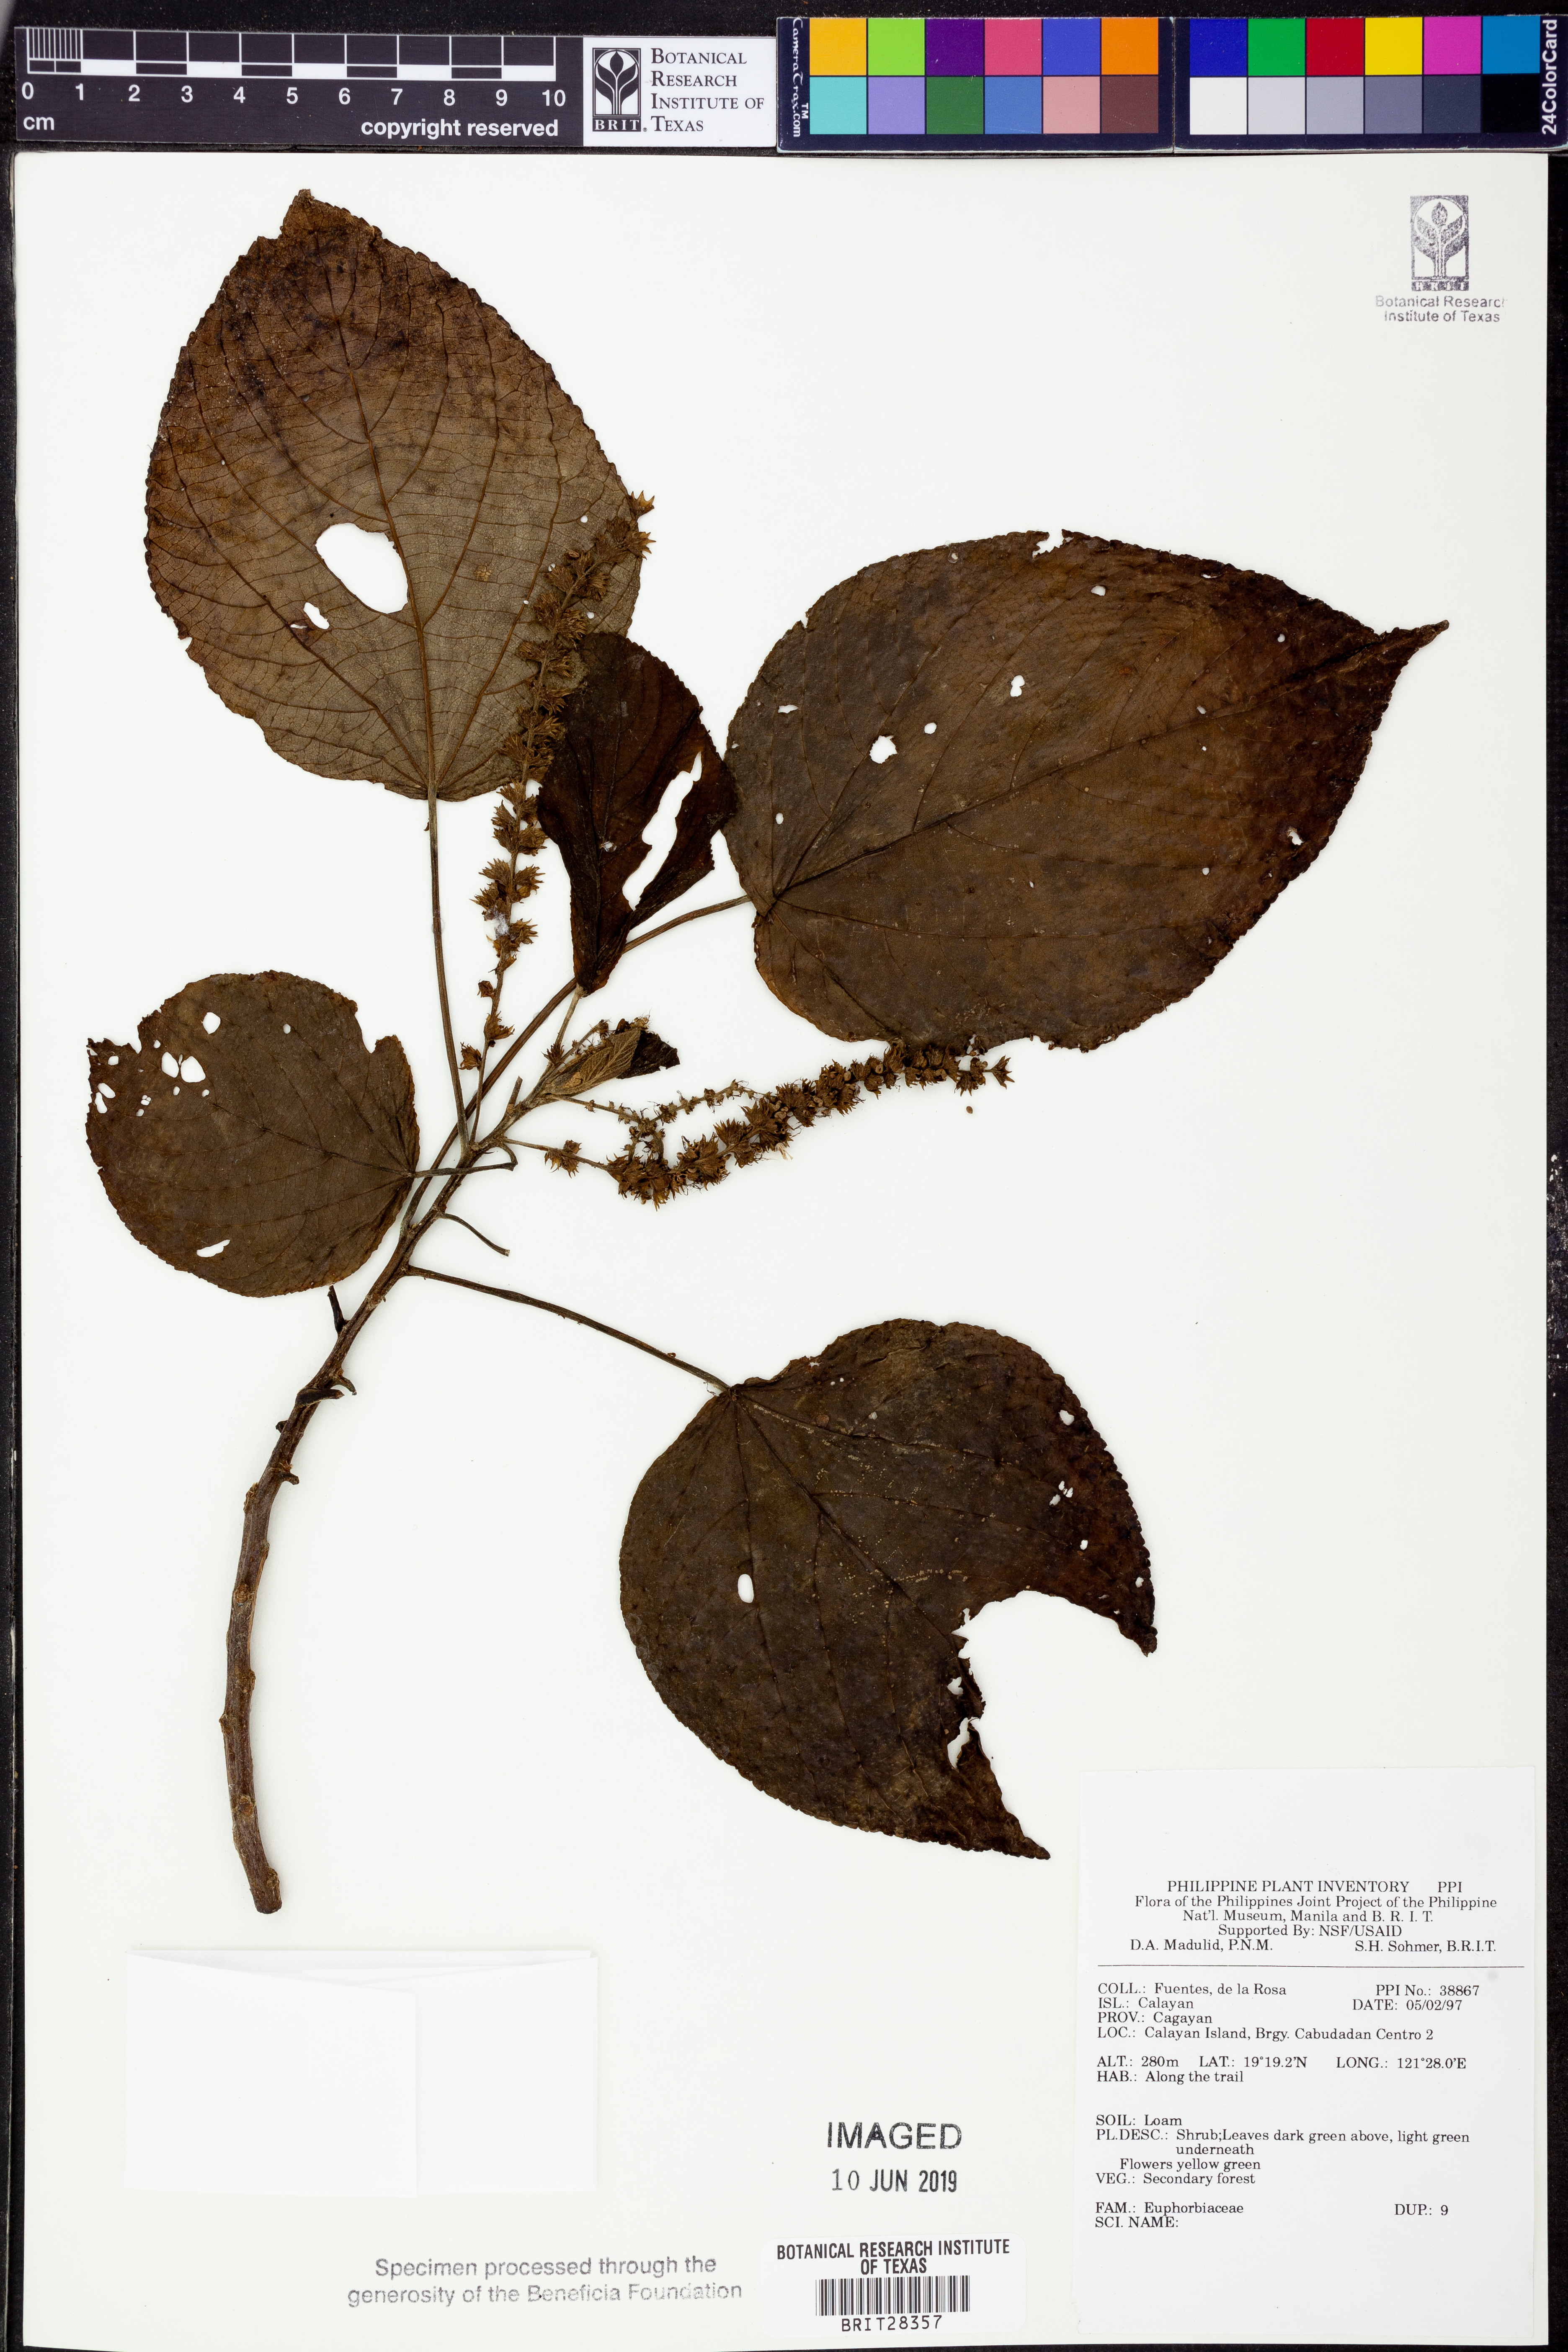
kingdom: Plantae
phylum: Tracheophyta
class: Magnoliopsida
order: Malpighiales
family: Euphorbiaceae
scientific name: Euphorbiaceae
